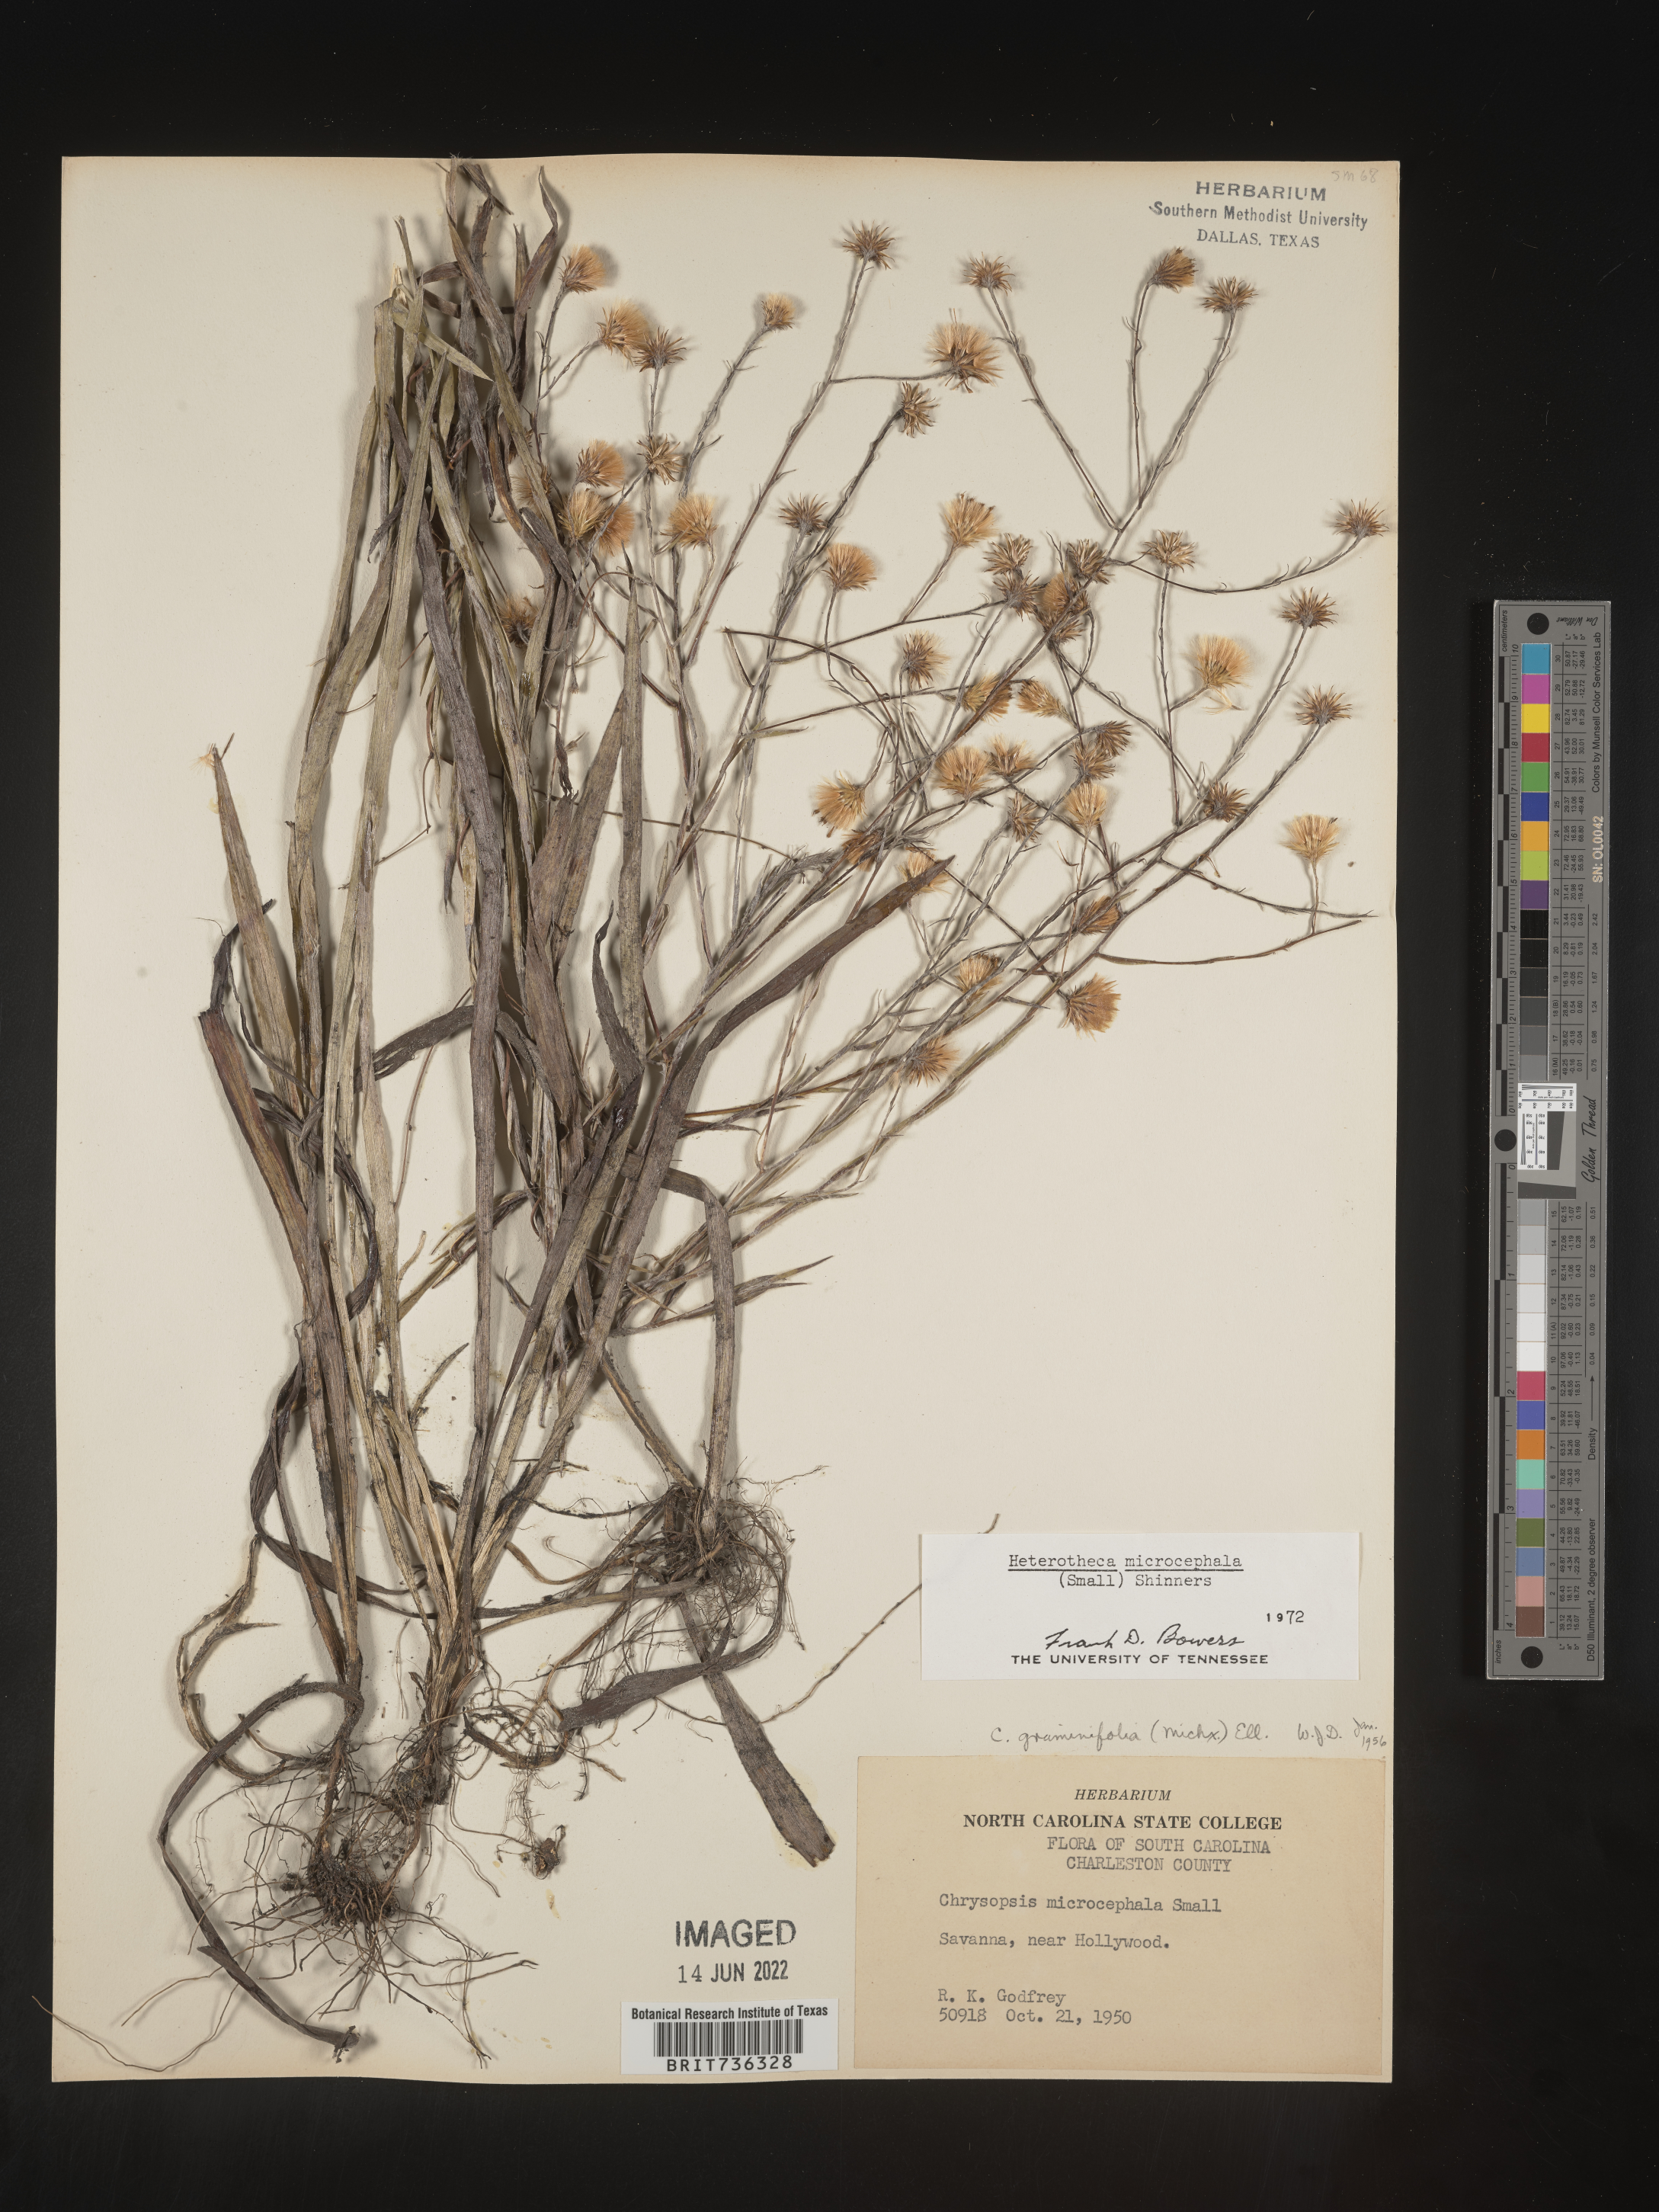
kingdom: Plantae
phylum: Tracheophyta
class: Magnoliopsida
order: Asterales
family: Asteraceae
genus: Pityopsis
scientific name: Pityopsis microcephala
